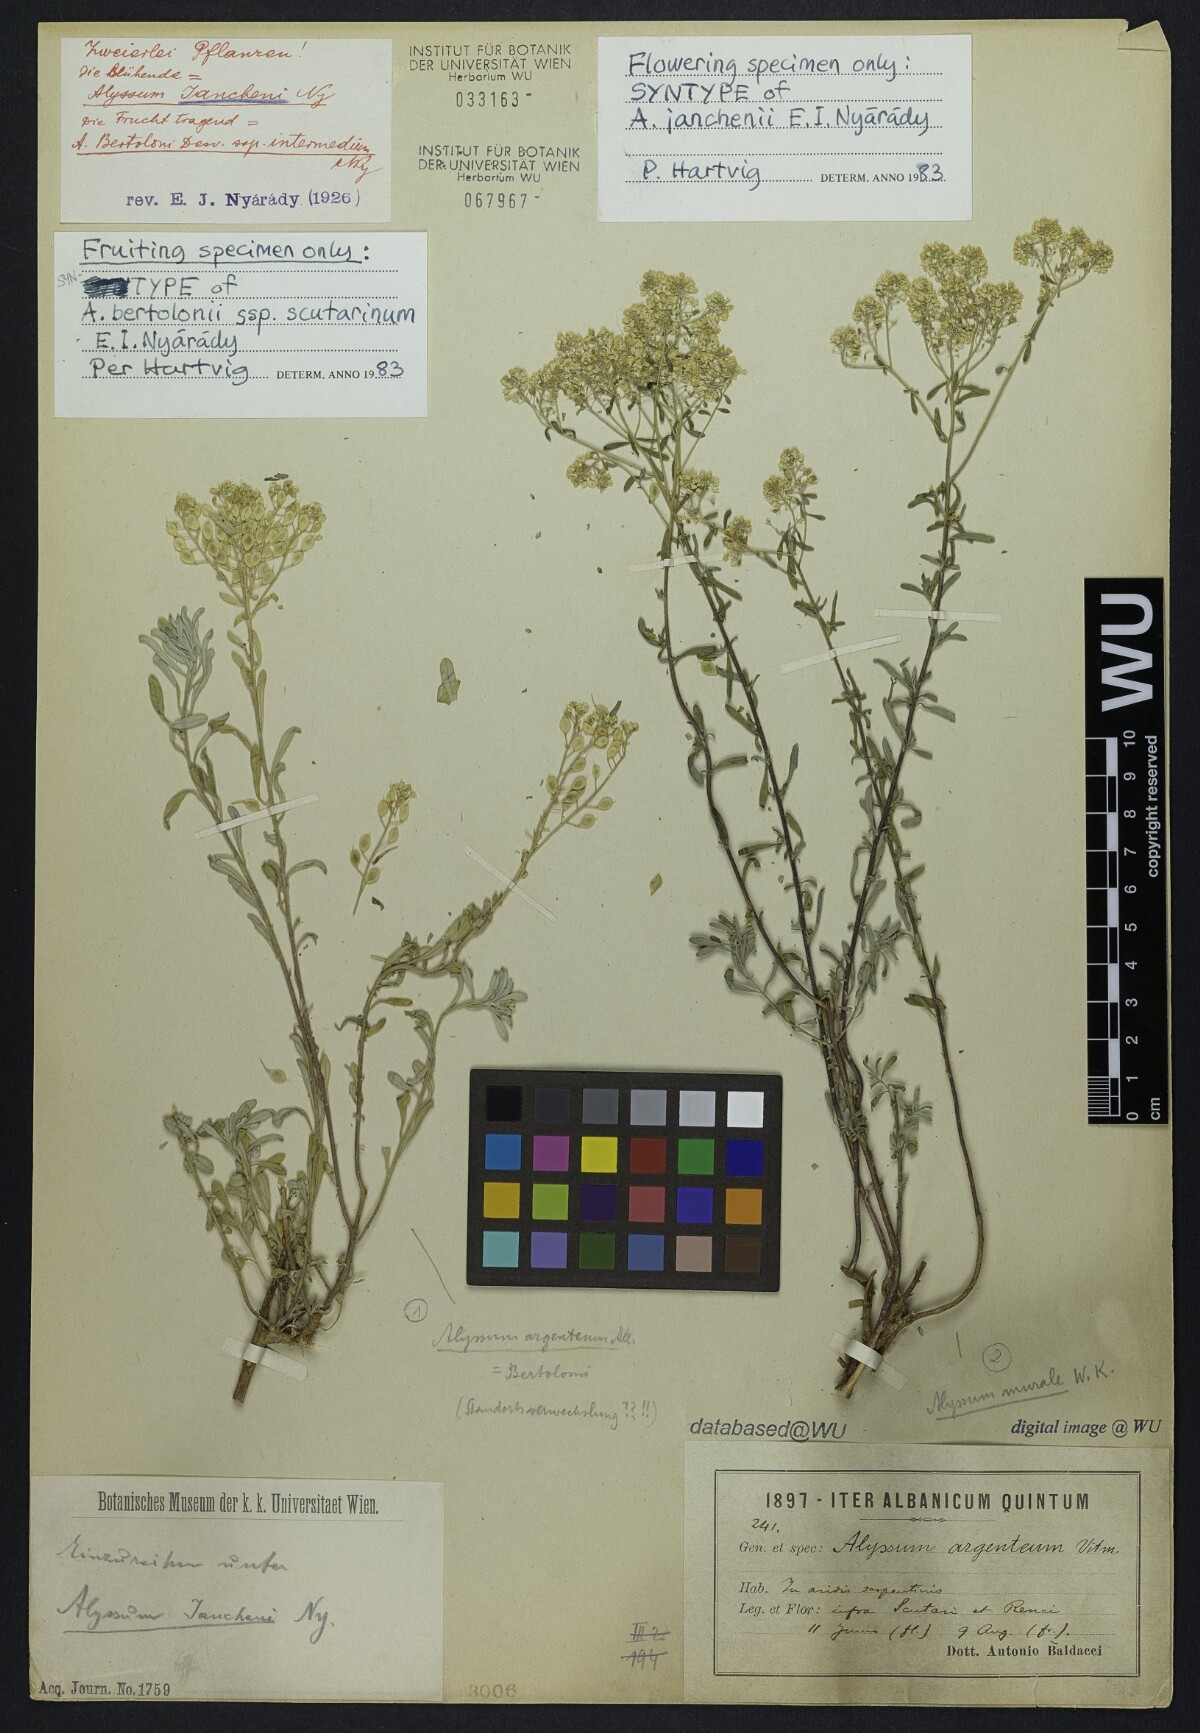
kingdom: Plantae
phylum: Tracheophyta
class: Magnoliopsida
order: Brassicales
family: Brassicaceae
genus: Odontarrhena
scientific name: Odontarrhena chalcidica
